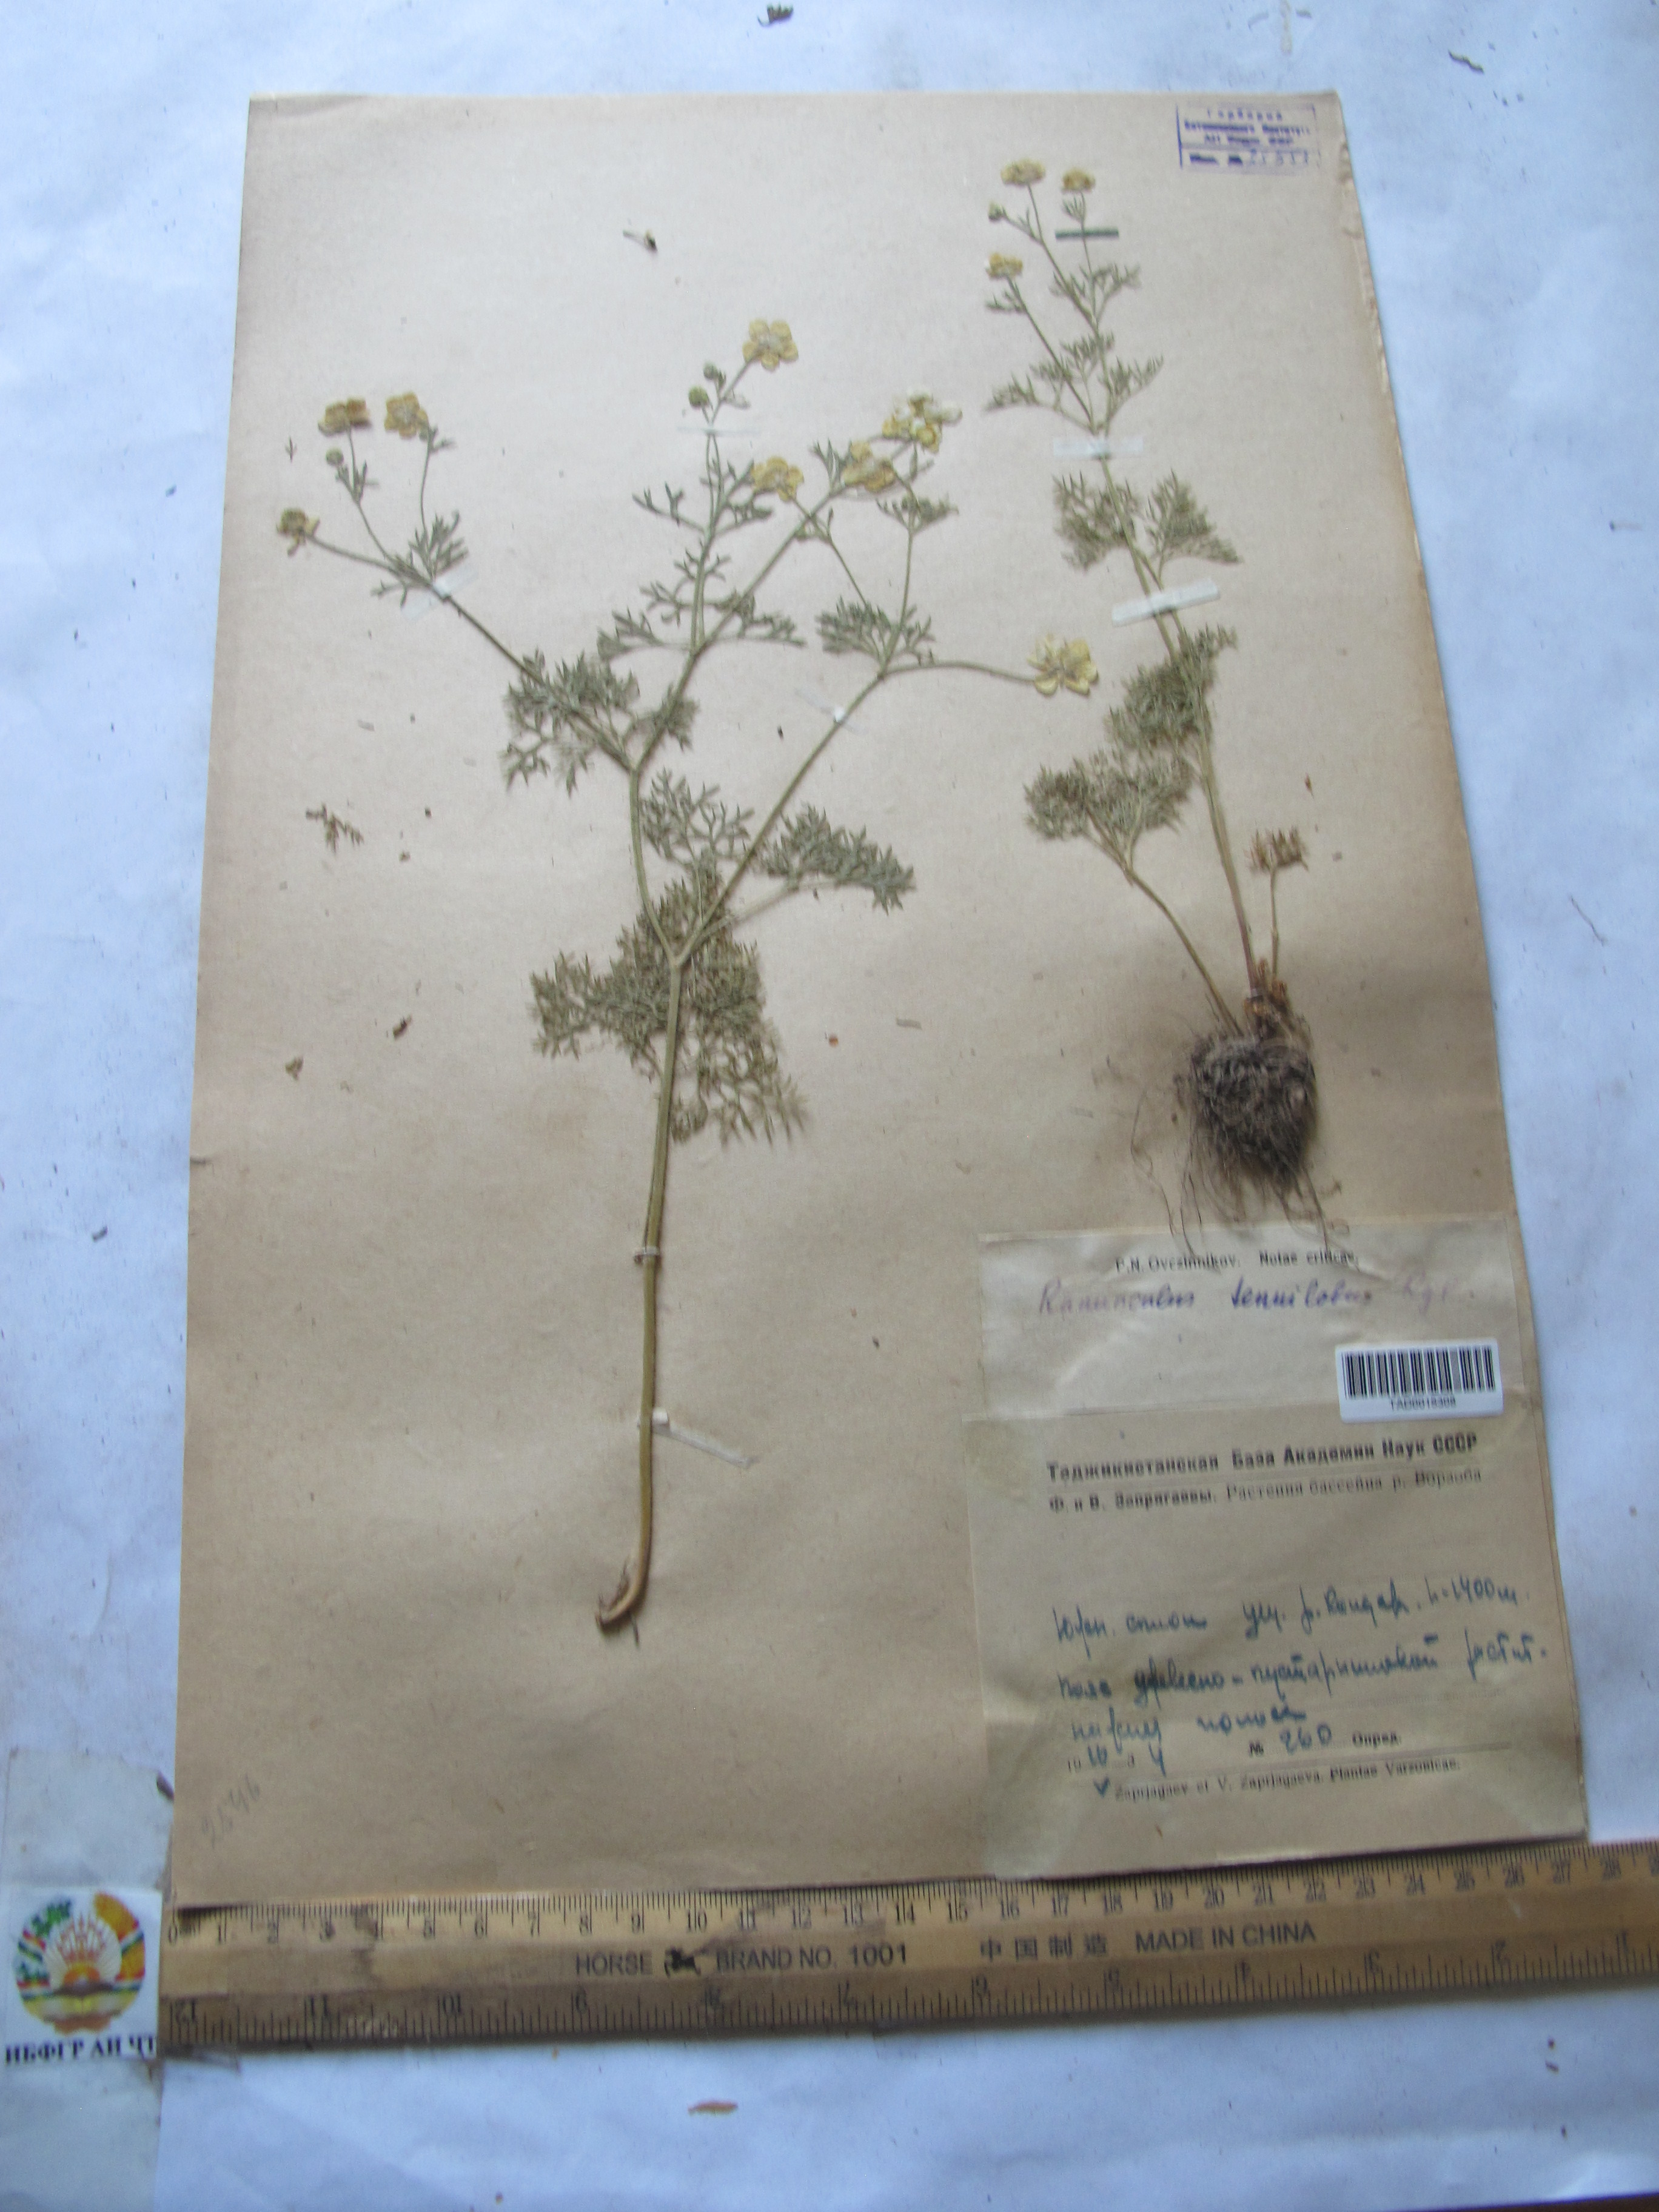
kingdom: Plantae
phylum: Tracheophyta
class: Magnoliopsida
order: Ranunculales
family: Ranunculaceae
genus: Ranunculus
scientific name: Ranunculus tenuilobus
